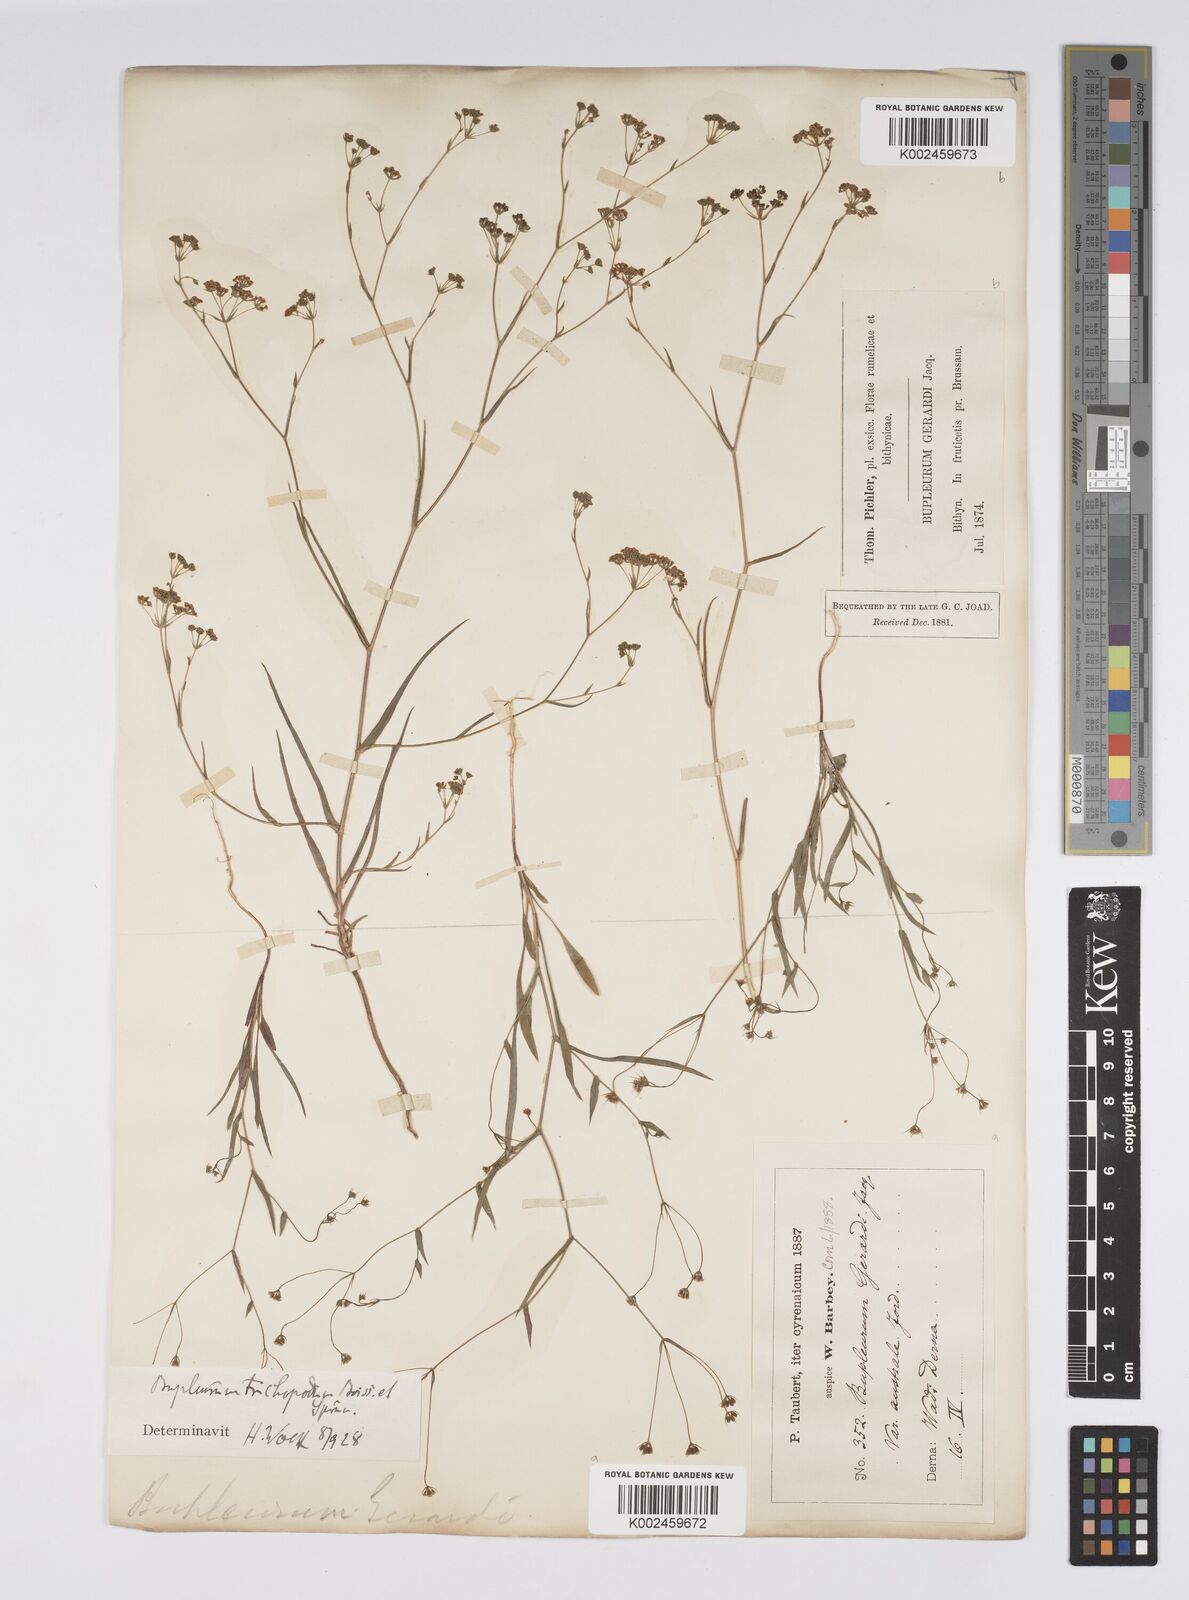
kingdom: Plantae
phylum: Tracheophyta
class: Magnoliopsida
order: Apiales
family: Apiaceae
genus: Bupleurum
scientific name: Bupleurum gerardi
